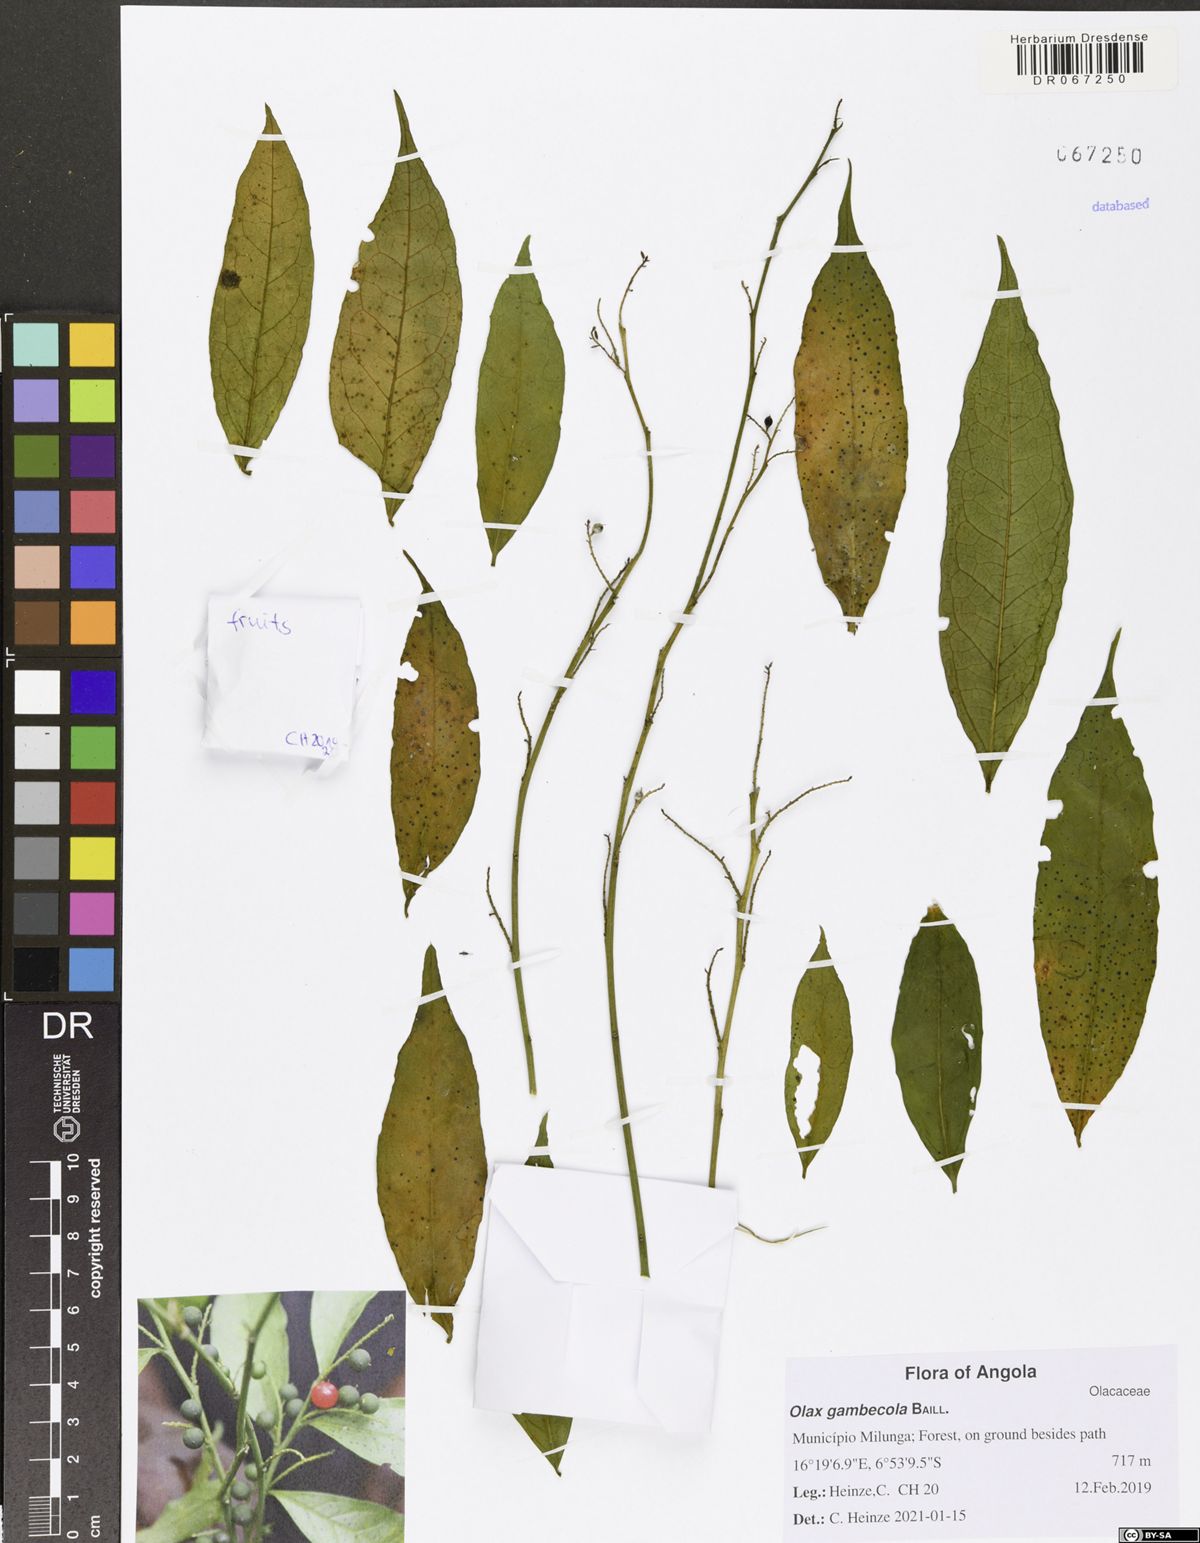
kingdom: Plantae
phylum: Tracheophyta
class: Magnoliopsida
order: Santalales
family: Olacaceae
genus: Olax
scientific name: Olax gambecola
